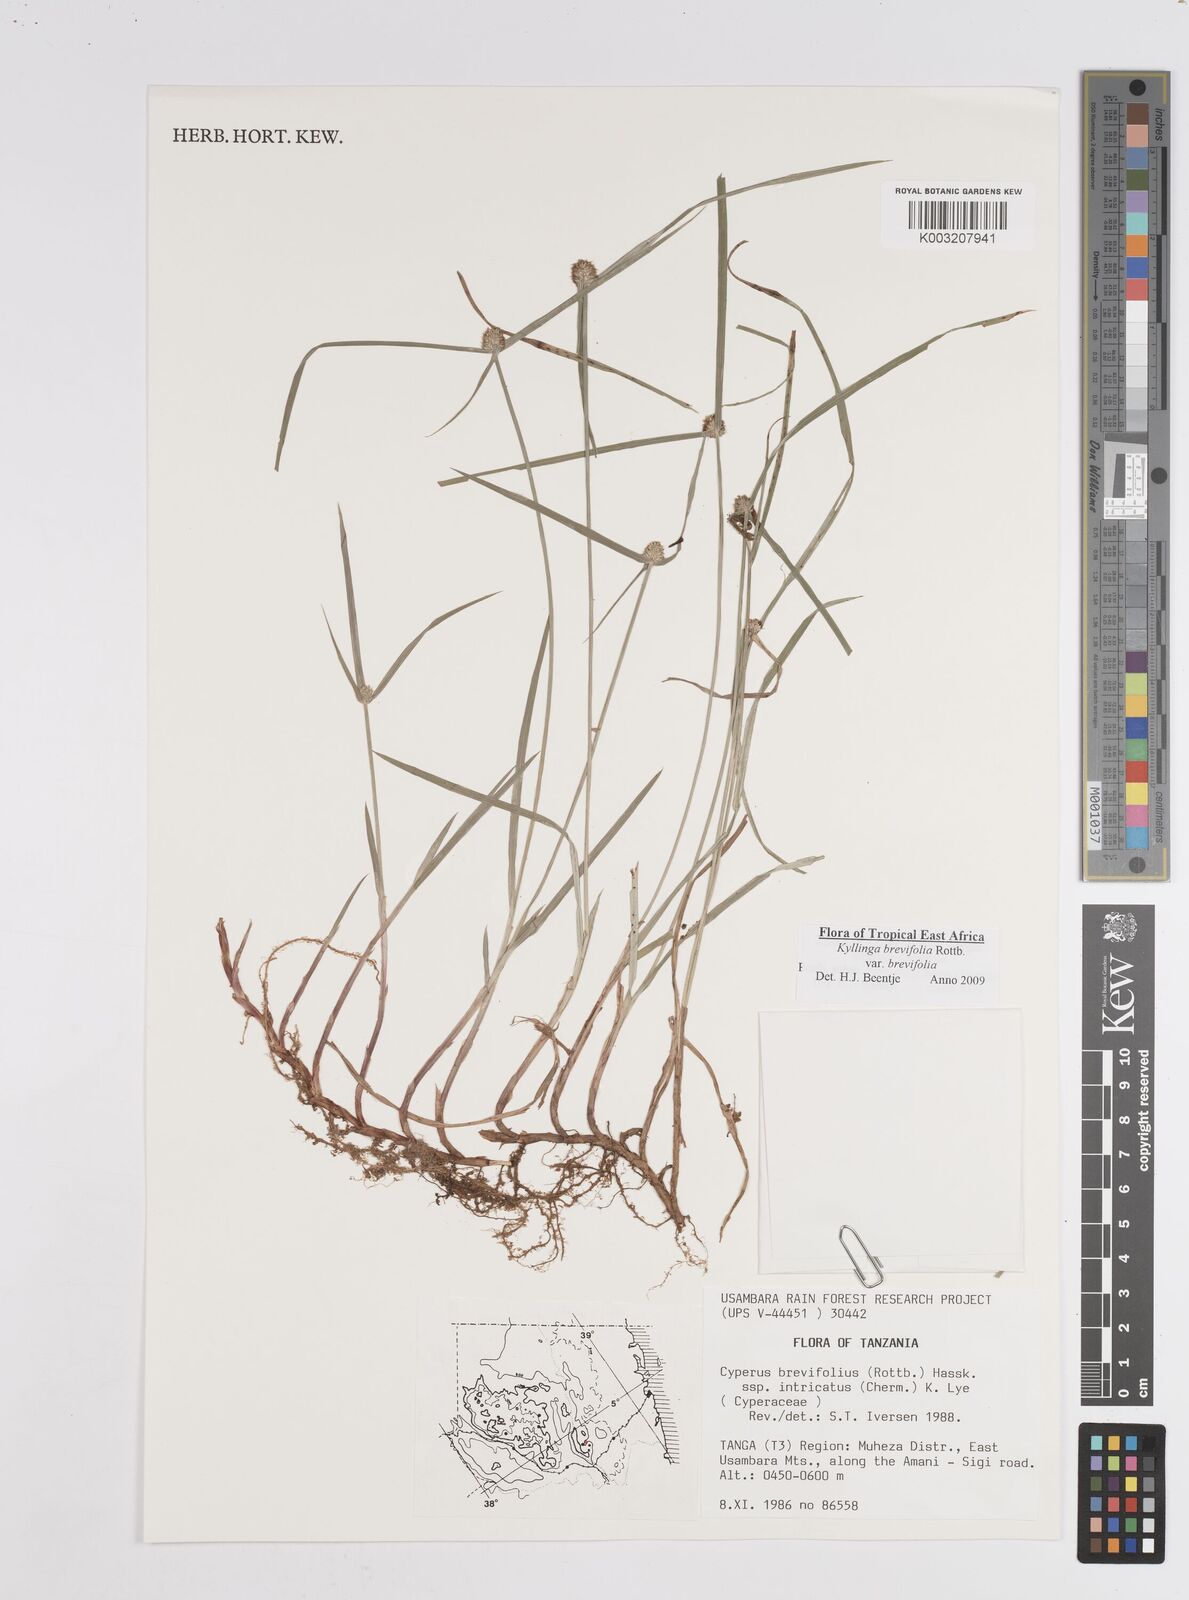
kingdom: Plantae
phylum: Tracheophyta
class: Liliopsida
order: Poales
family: Cyperaceae
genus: Cyperus
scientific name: Cyperus brevifolius
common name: Globe kyllinga
